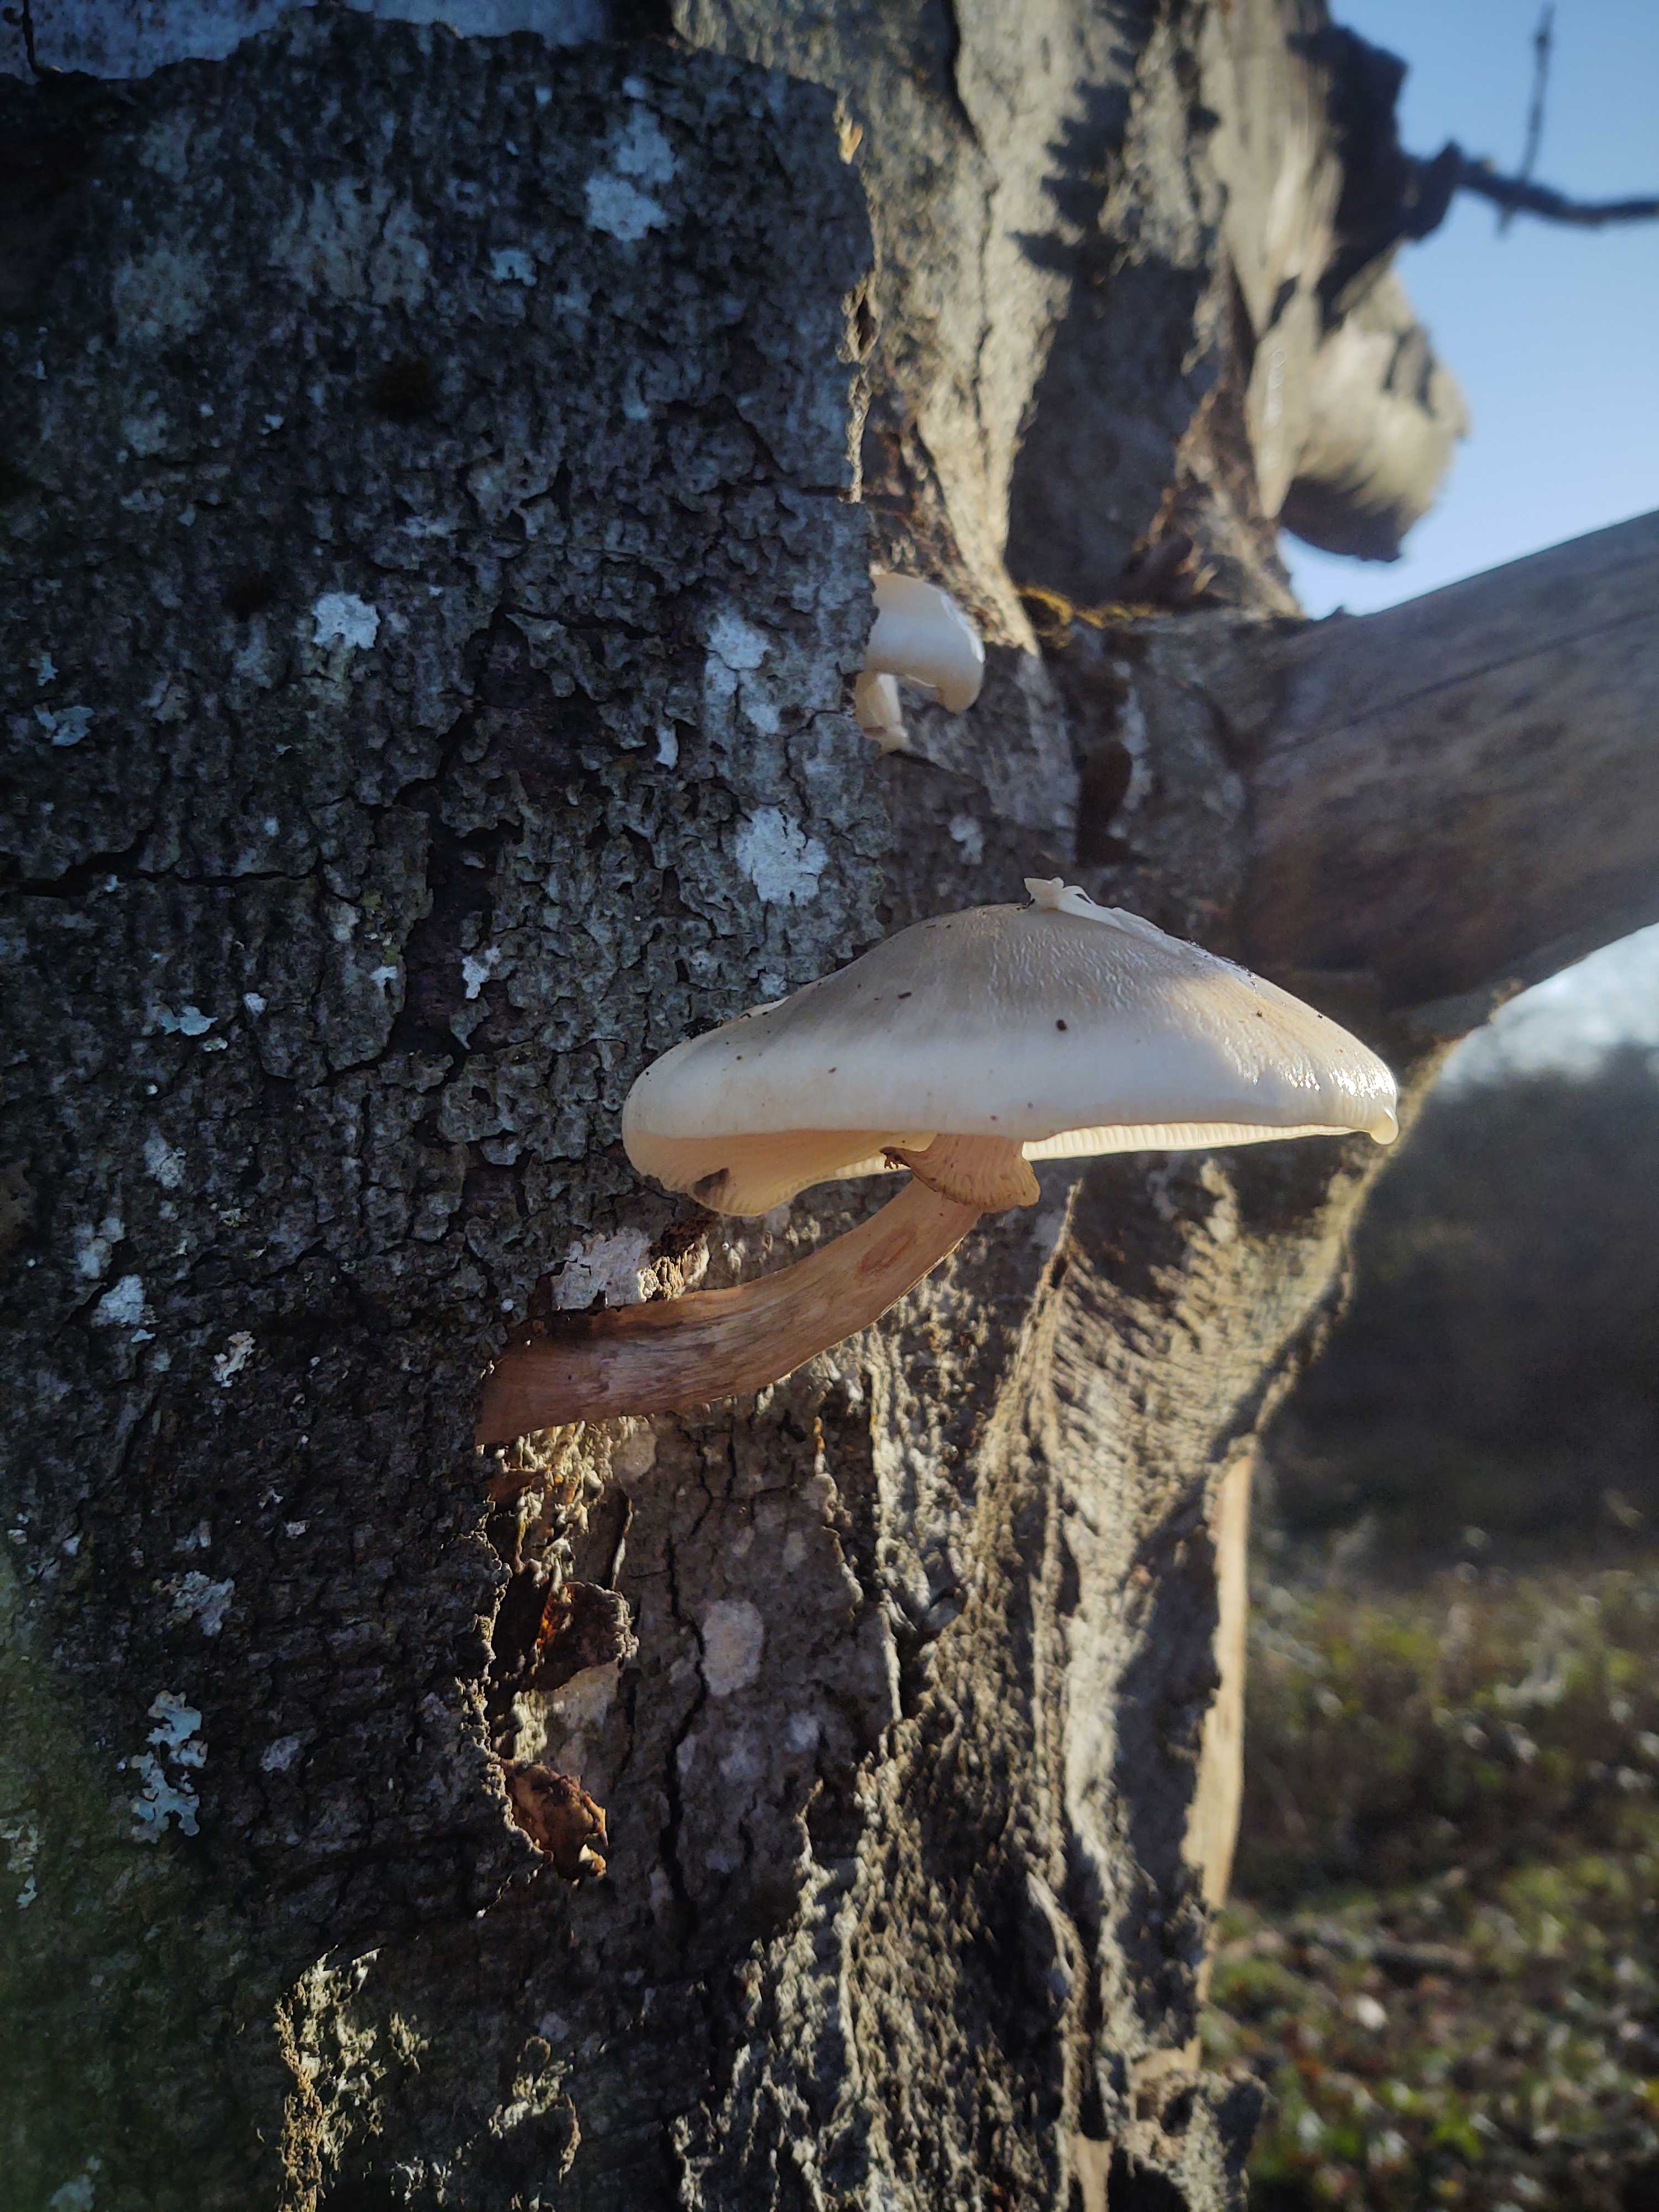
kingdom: Fungi
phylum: Basidiomycota
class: Agaricomycetes
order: Agaricales
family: Physalacriaceae
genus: Mucidula
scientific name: Mucidula mucida
